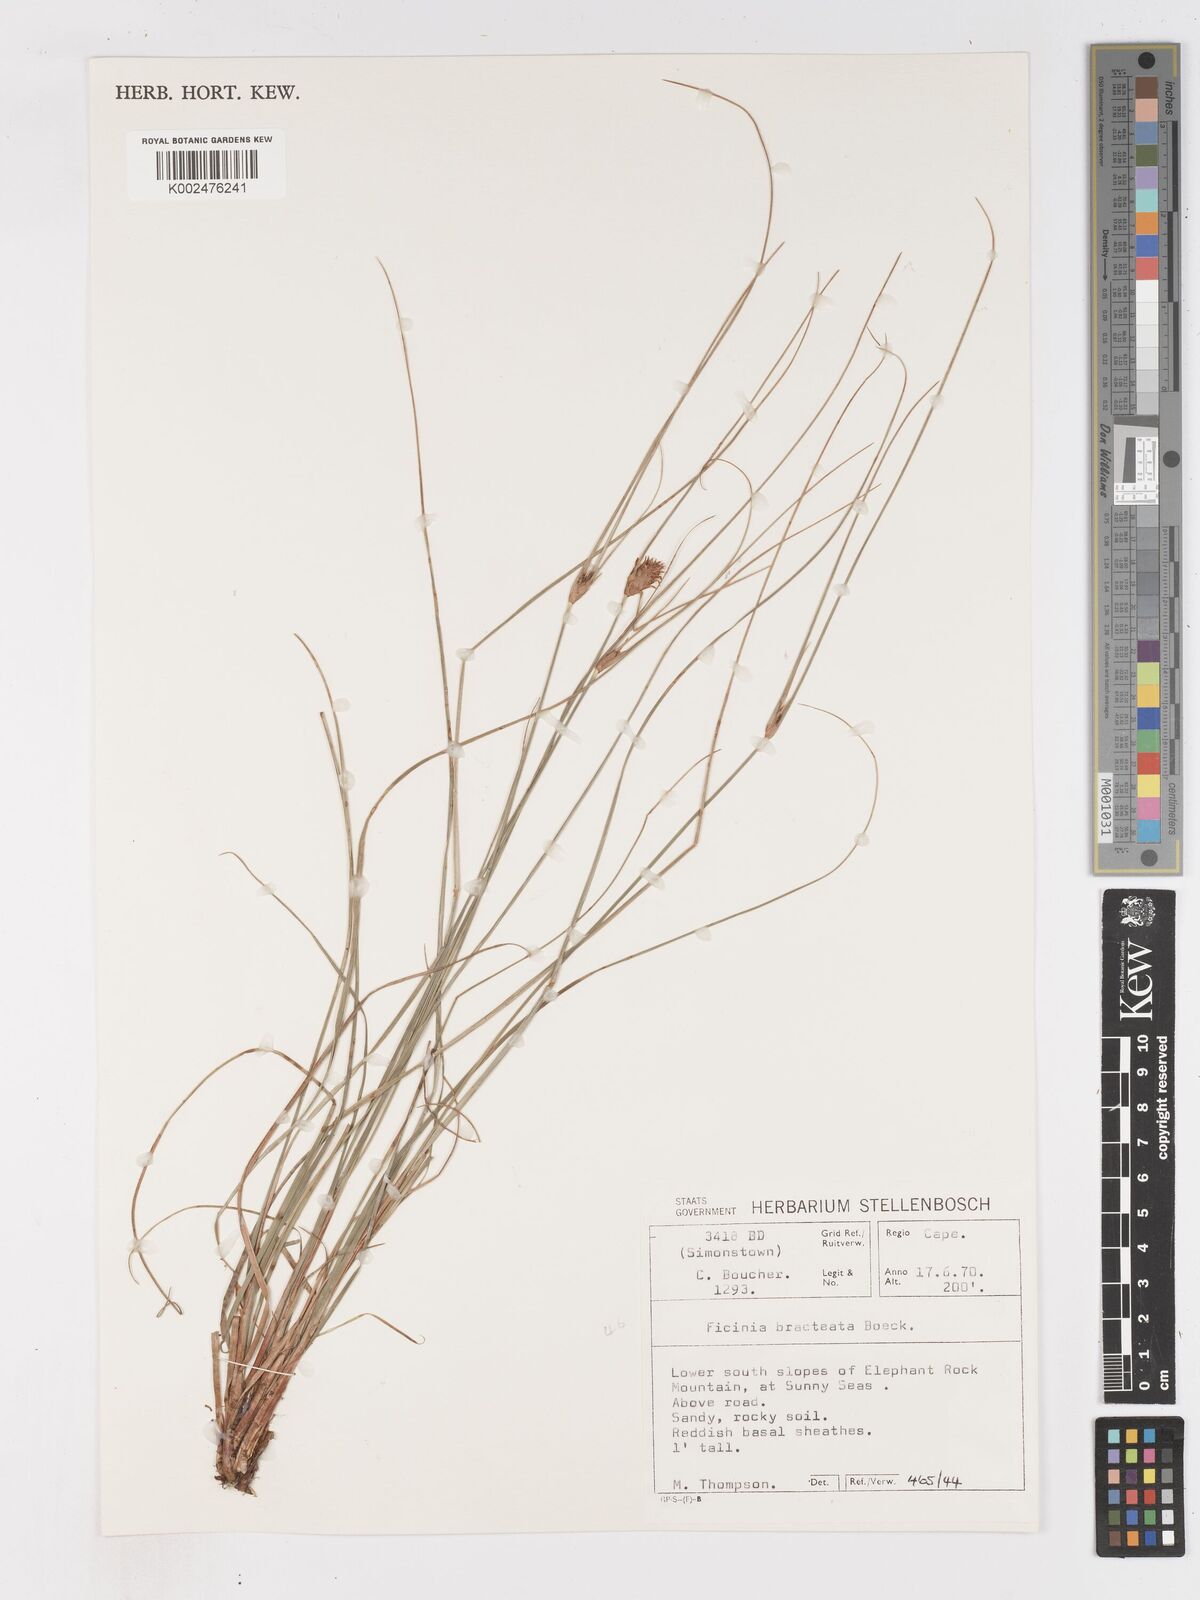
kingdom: Plantae
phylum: Tracheophyta
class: Liliopsida
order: Poales
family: Cyperaceae
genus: Ficinia
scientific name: Ficinia nigrescens
